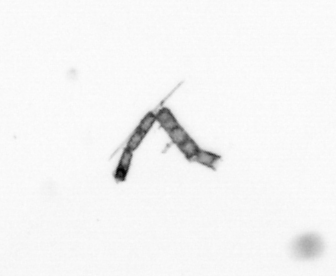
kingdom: Chromista
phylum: Ochrophyta
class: Bacillariophyceae
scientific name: Bacillariophyceae
